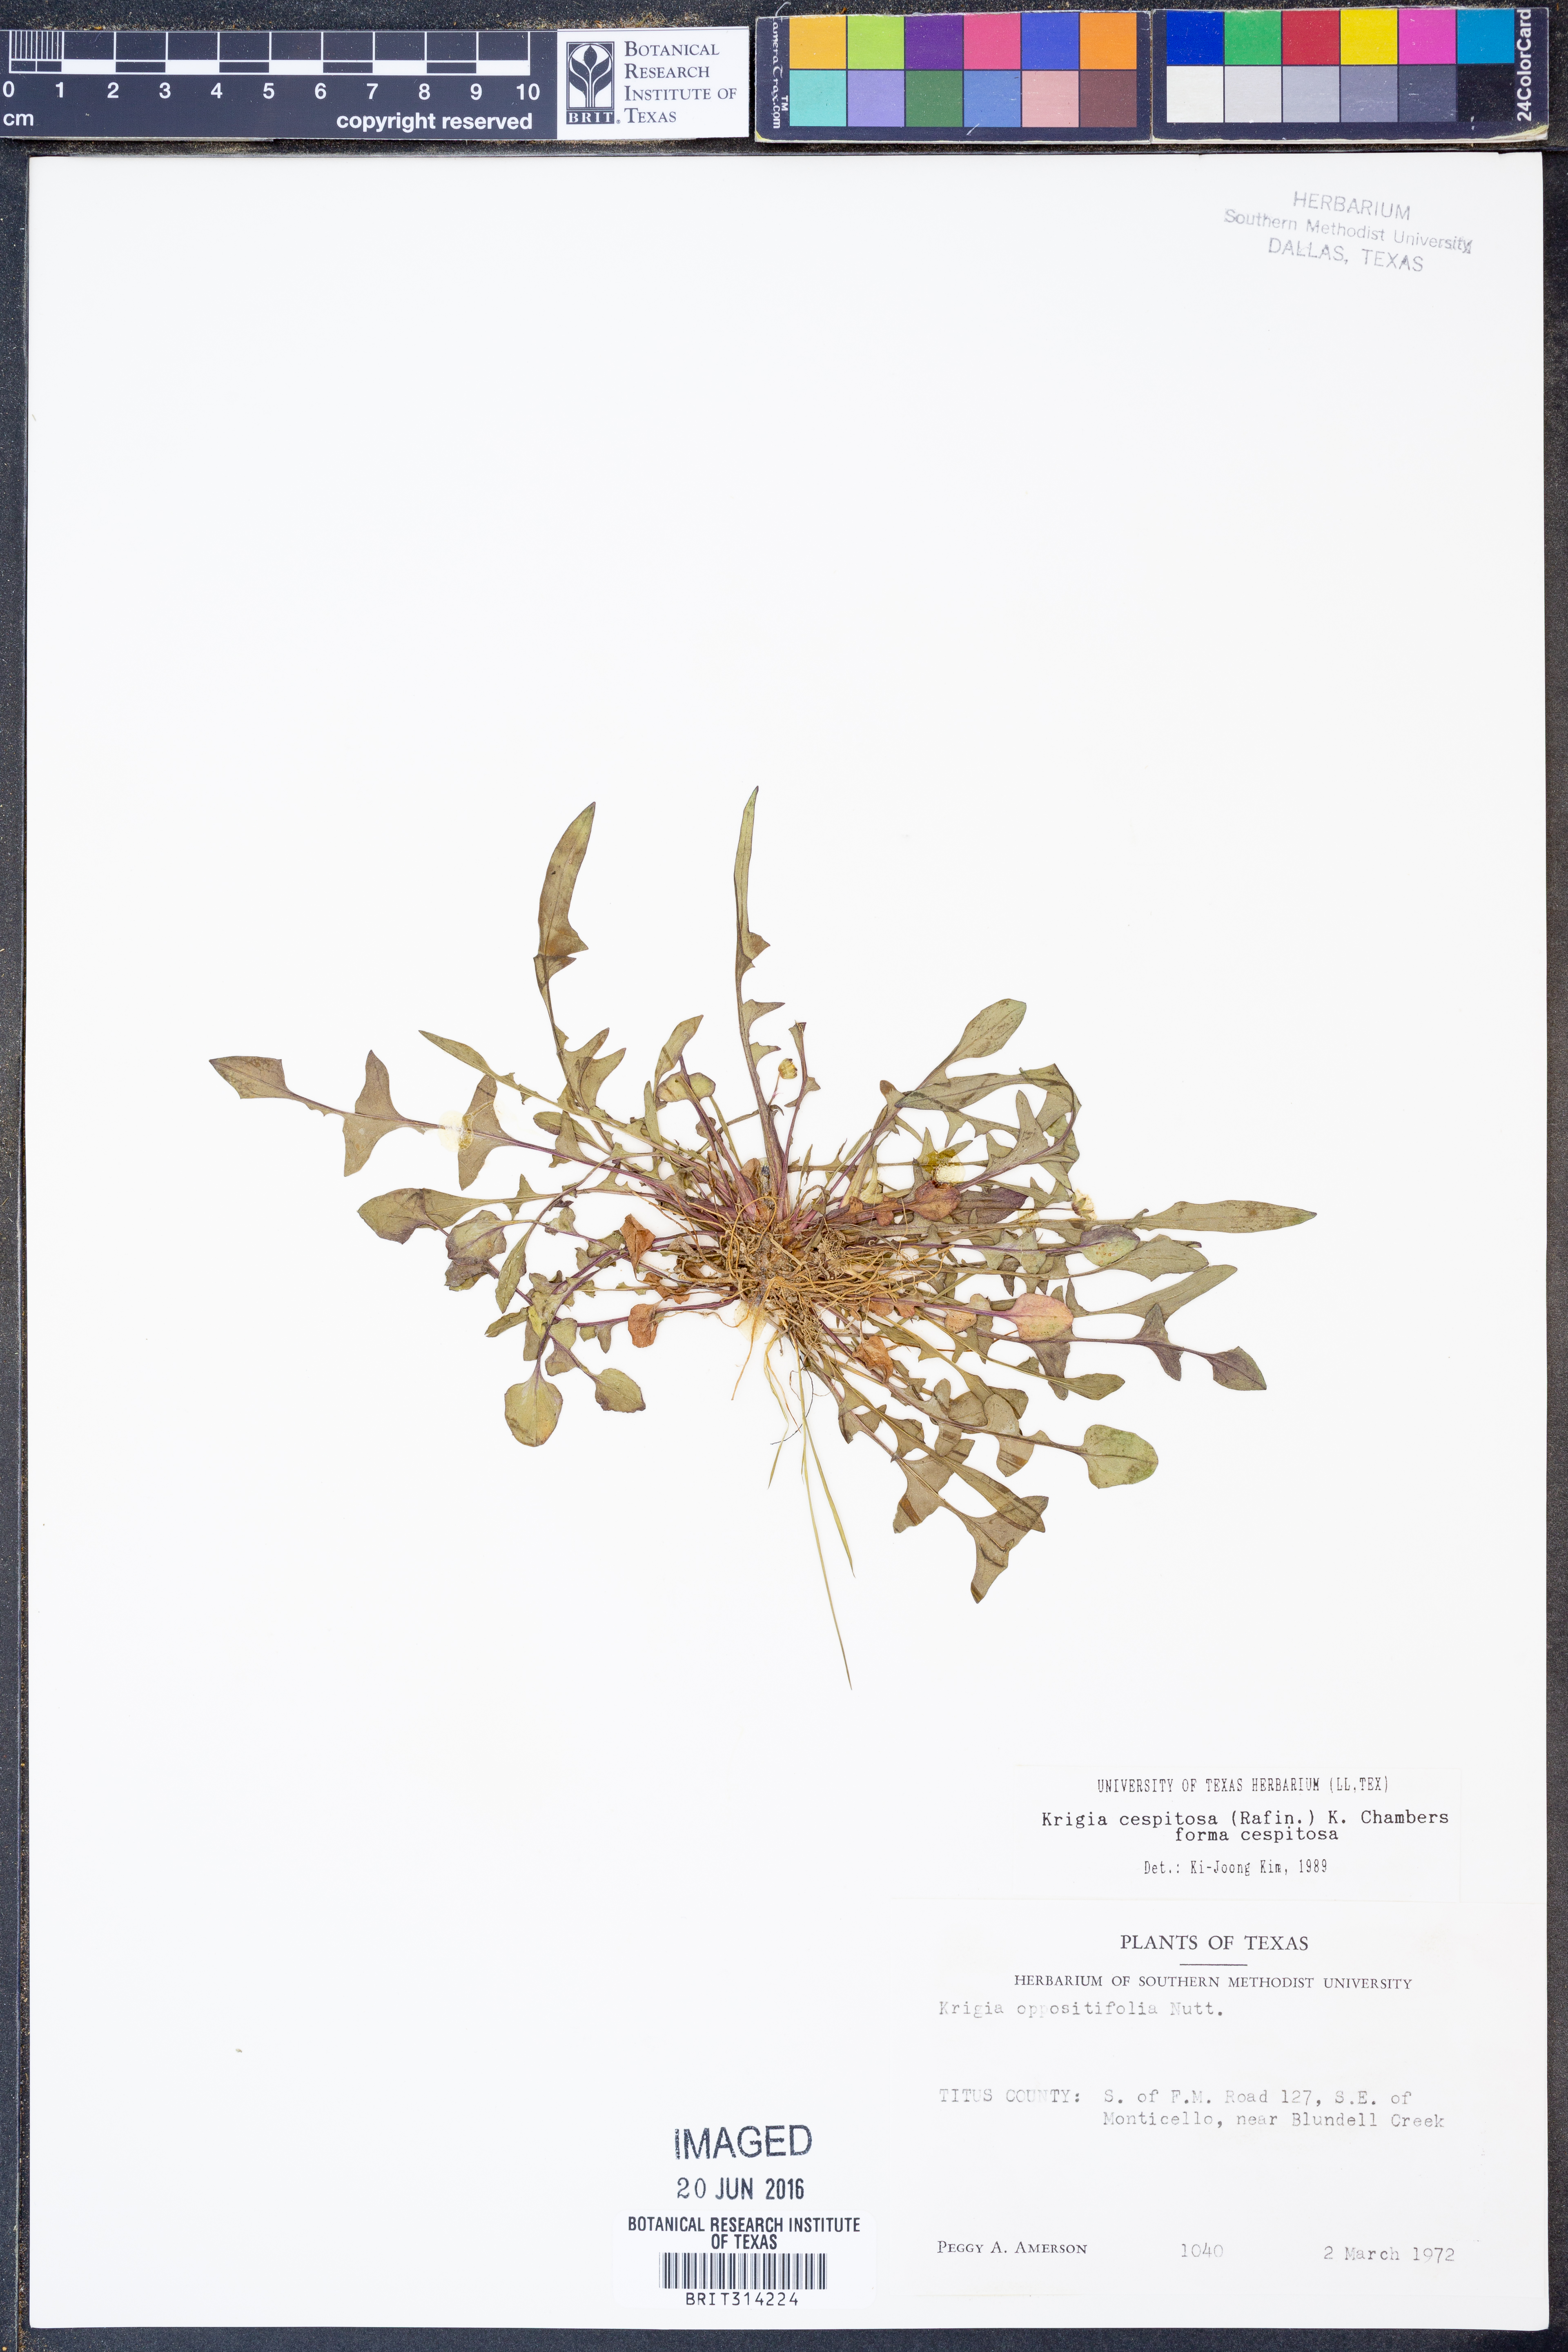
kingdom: Plantae
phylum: Tracheophyta
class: Magnoliopsida
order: Asterales
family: Asteraceae
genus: Krigia
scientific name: Krigia cespitosa
